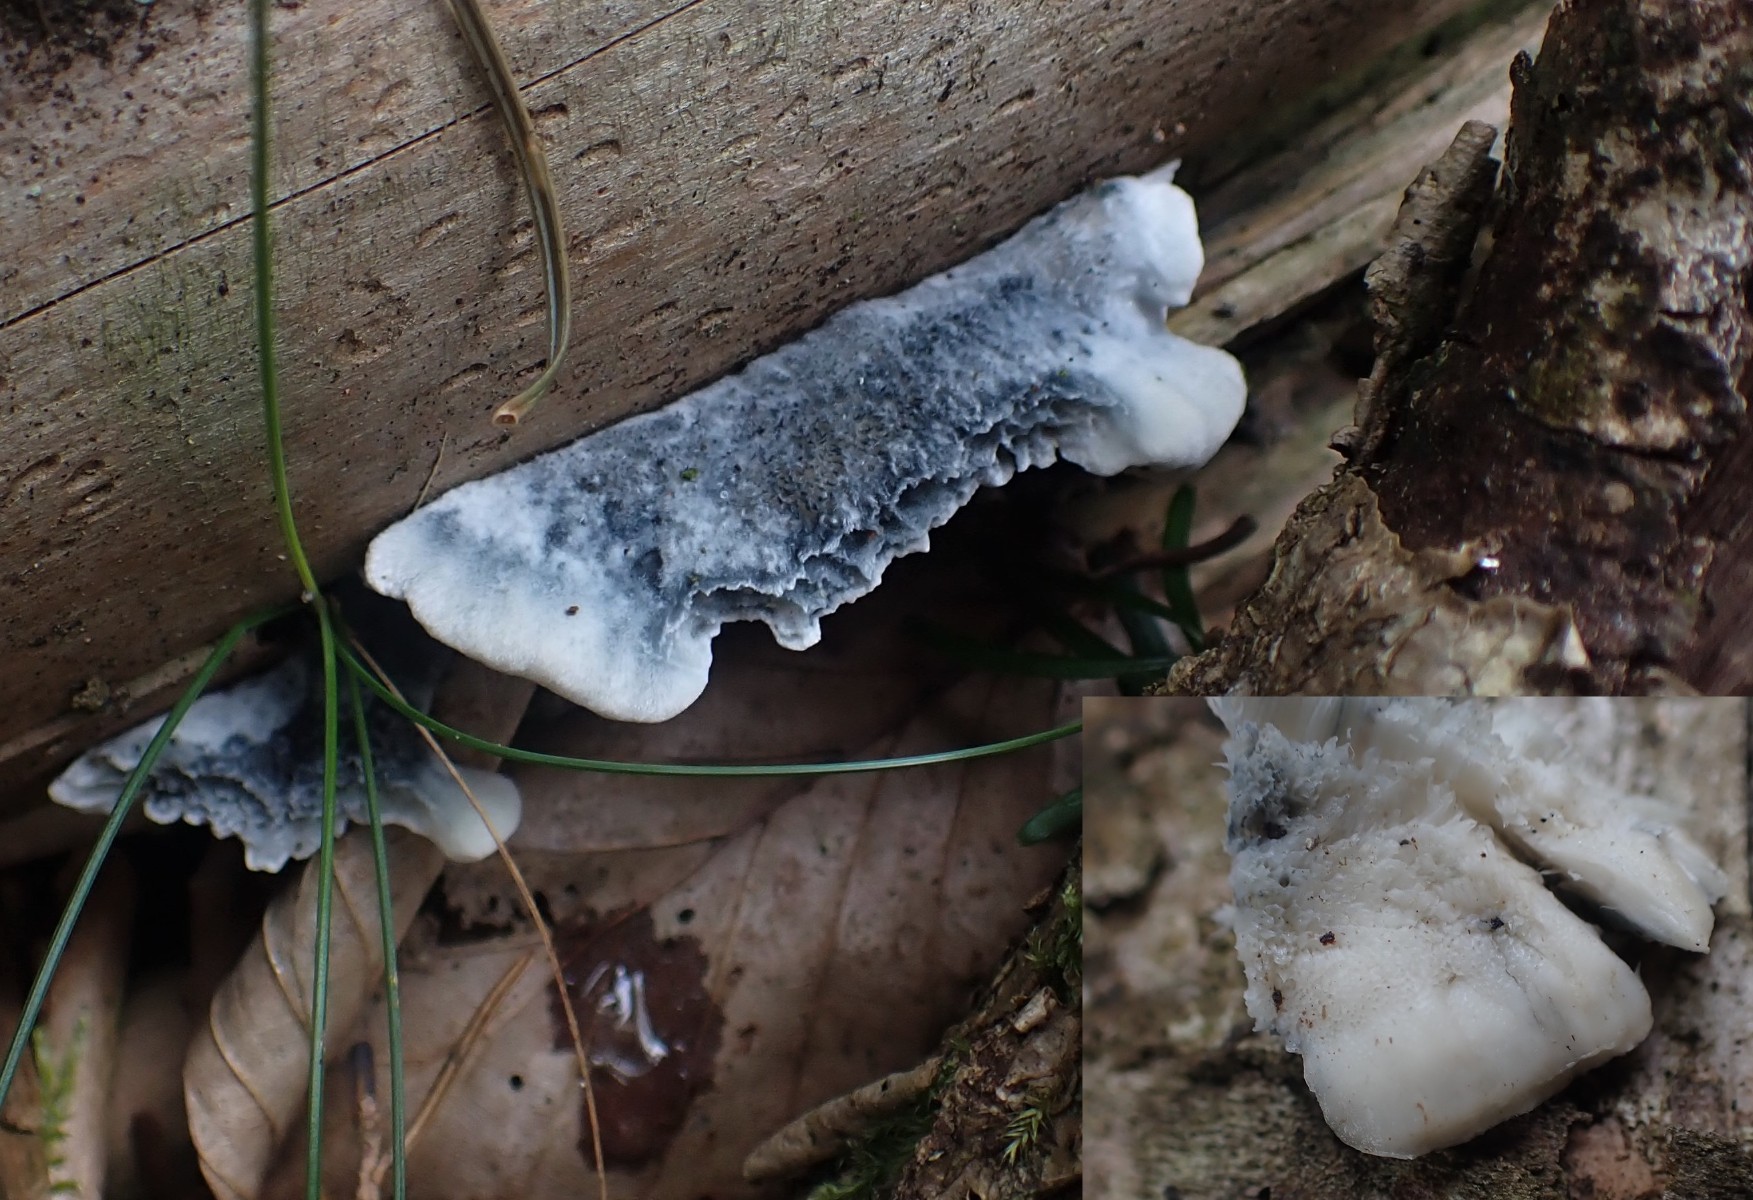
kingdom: Fungi
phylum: Basidiomycota
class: Agaricomycetes
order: Polyporales
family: Polyporaceae
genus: Cyanosporus
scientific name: Cyanosporus caesius
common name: blålig kødporesvamp
